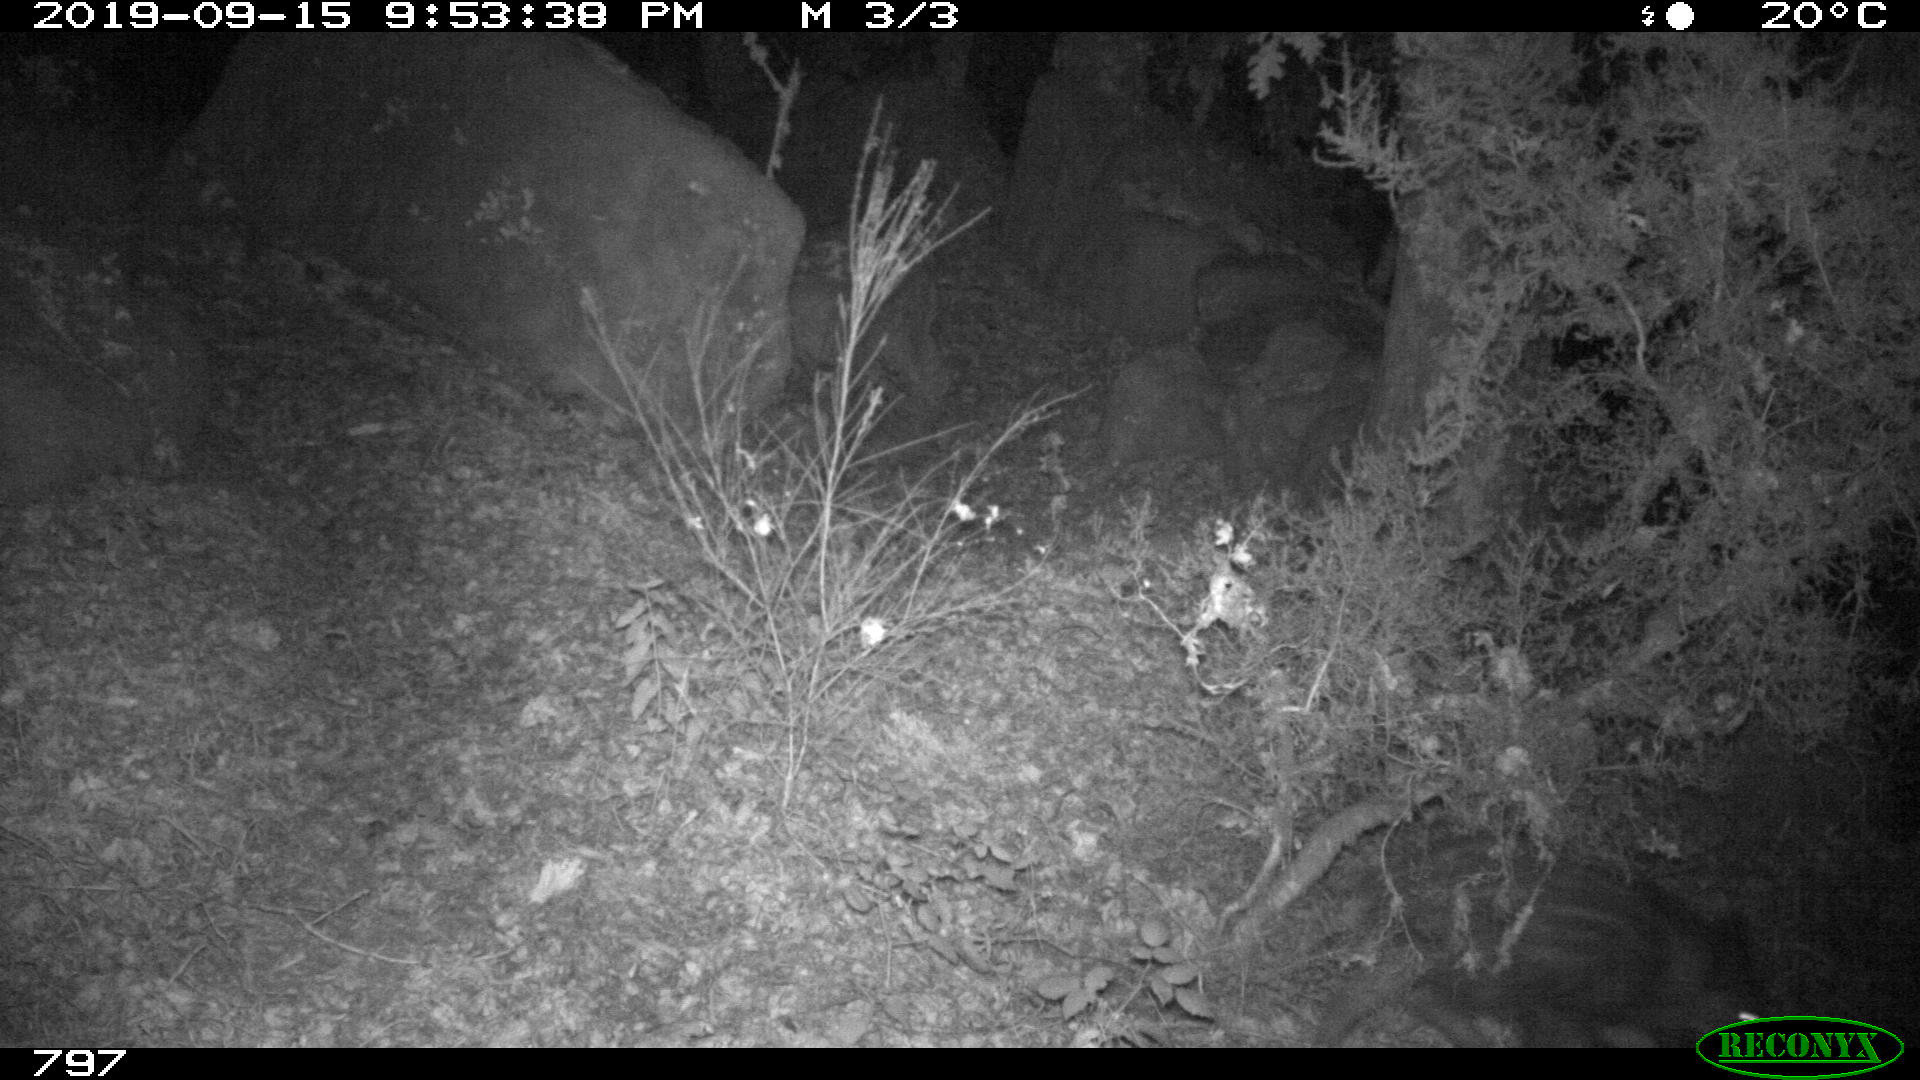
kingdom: Animalia
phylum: Chordata
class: Mammalia
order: Artiodactyla
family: Suidae
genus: Sus
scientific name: Sus scrofa
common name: Wild boar
